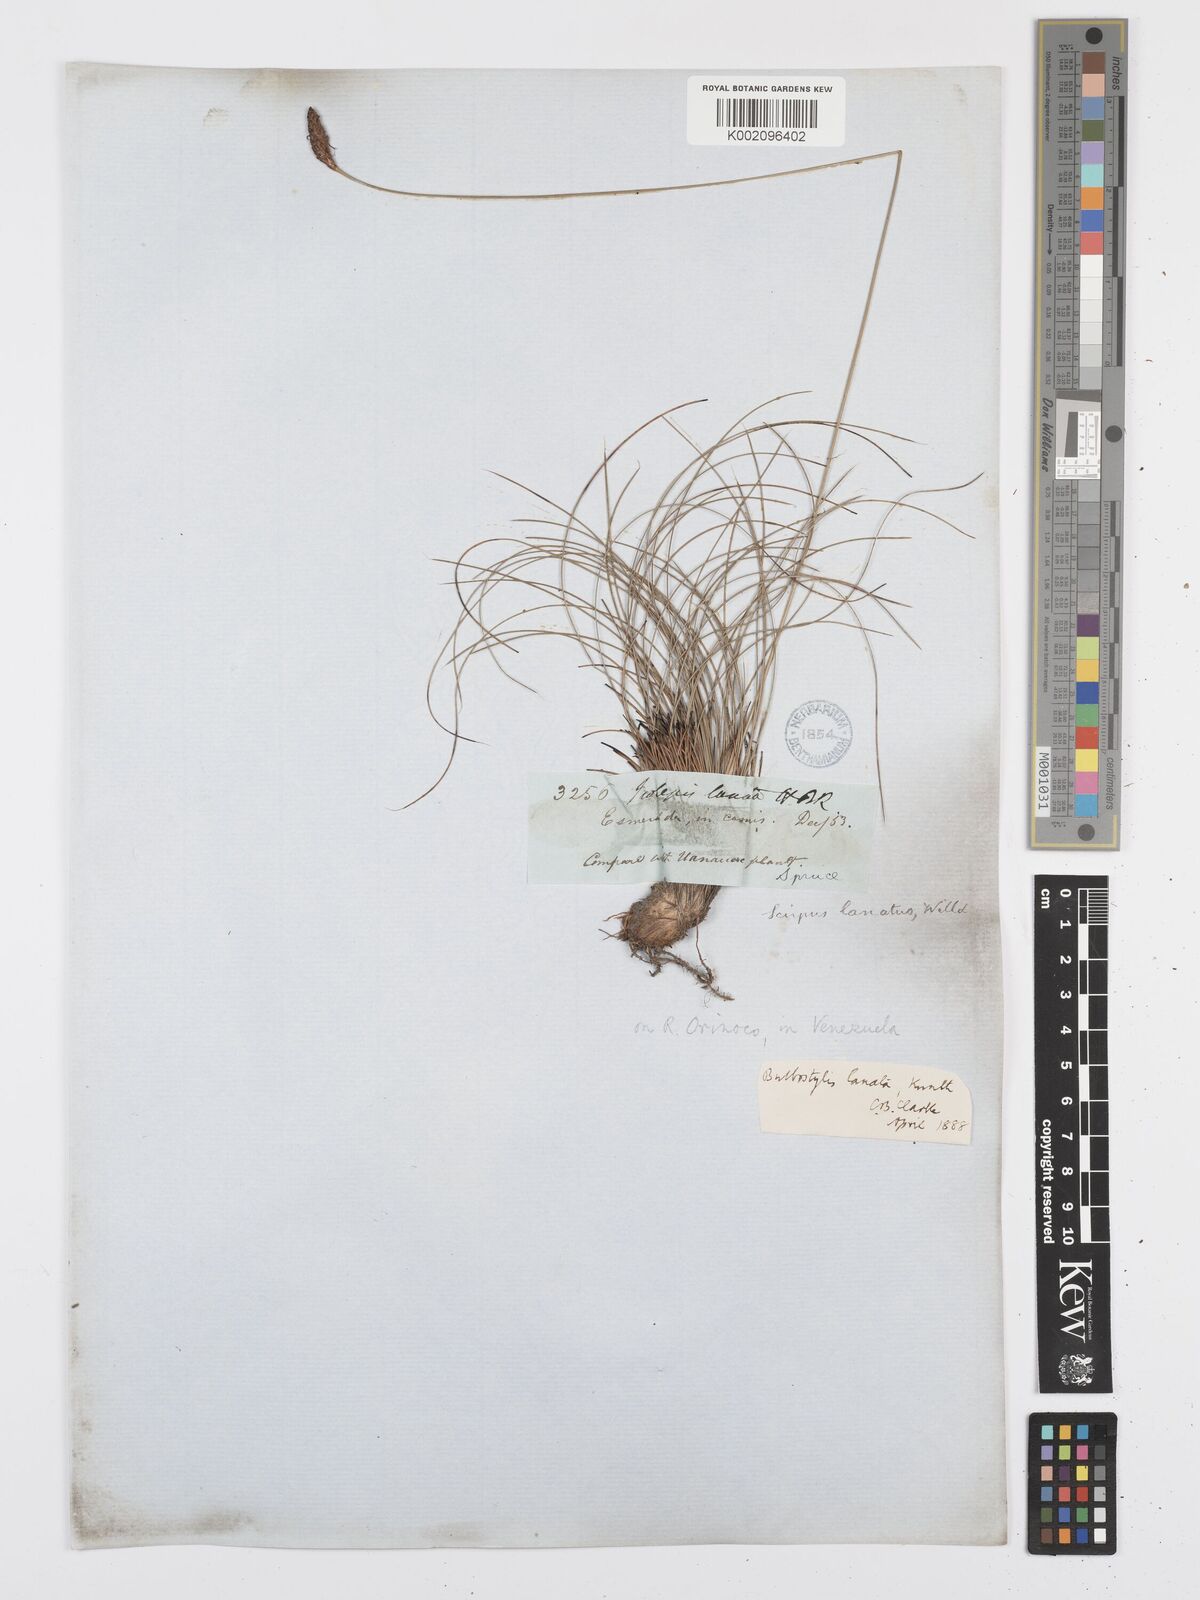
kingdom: Plantae
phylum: Tracheophyta
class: Liliopsida
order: Poales
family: Cyperaceae
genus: Bulbostylis
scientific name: Bulbostylis lanata
